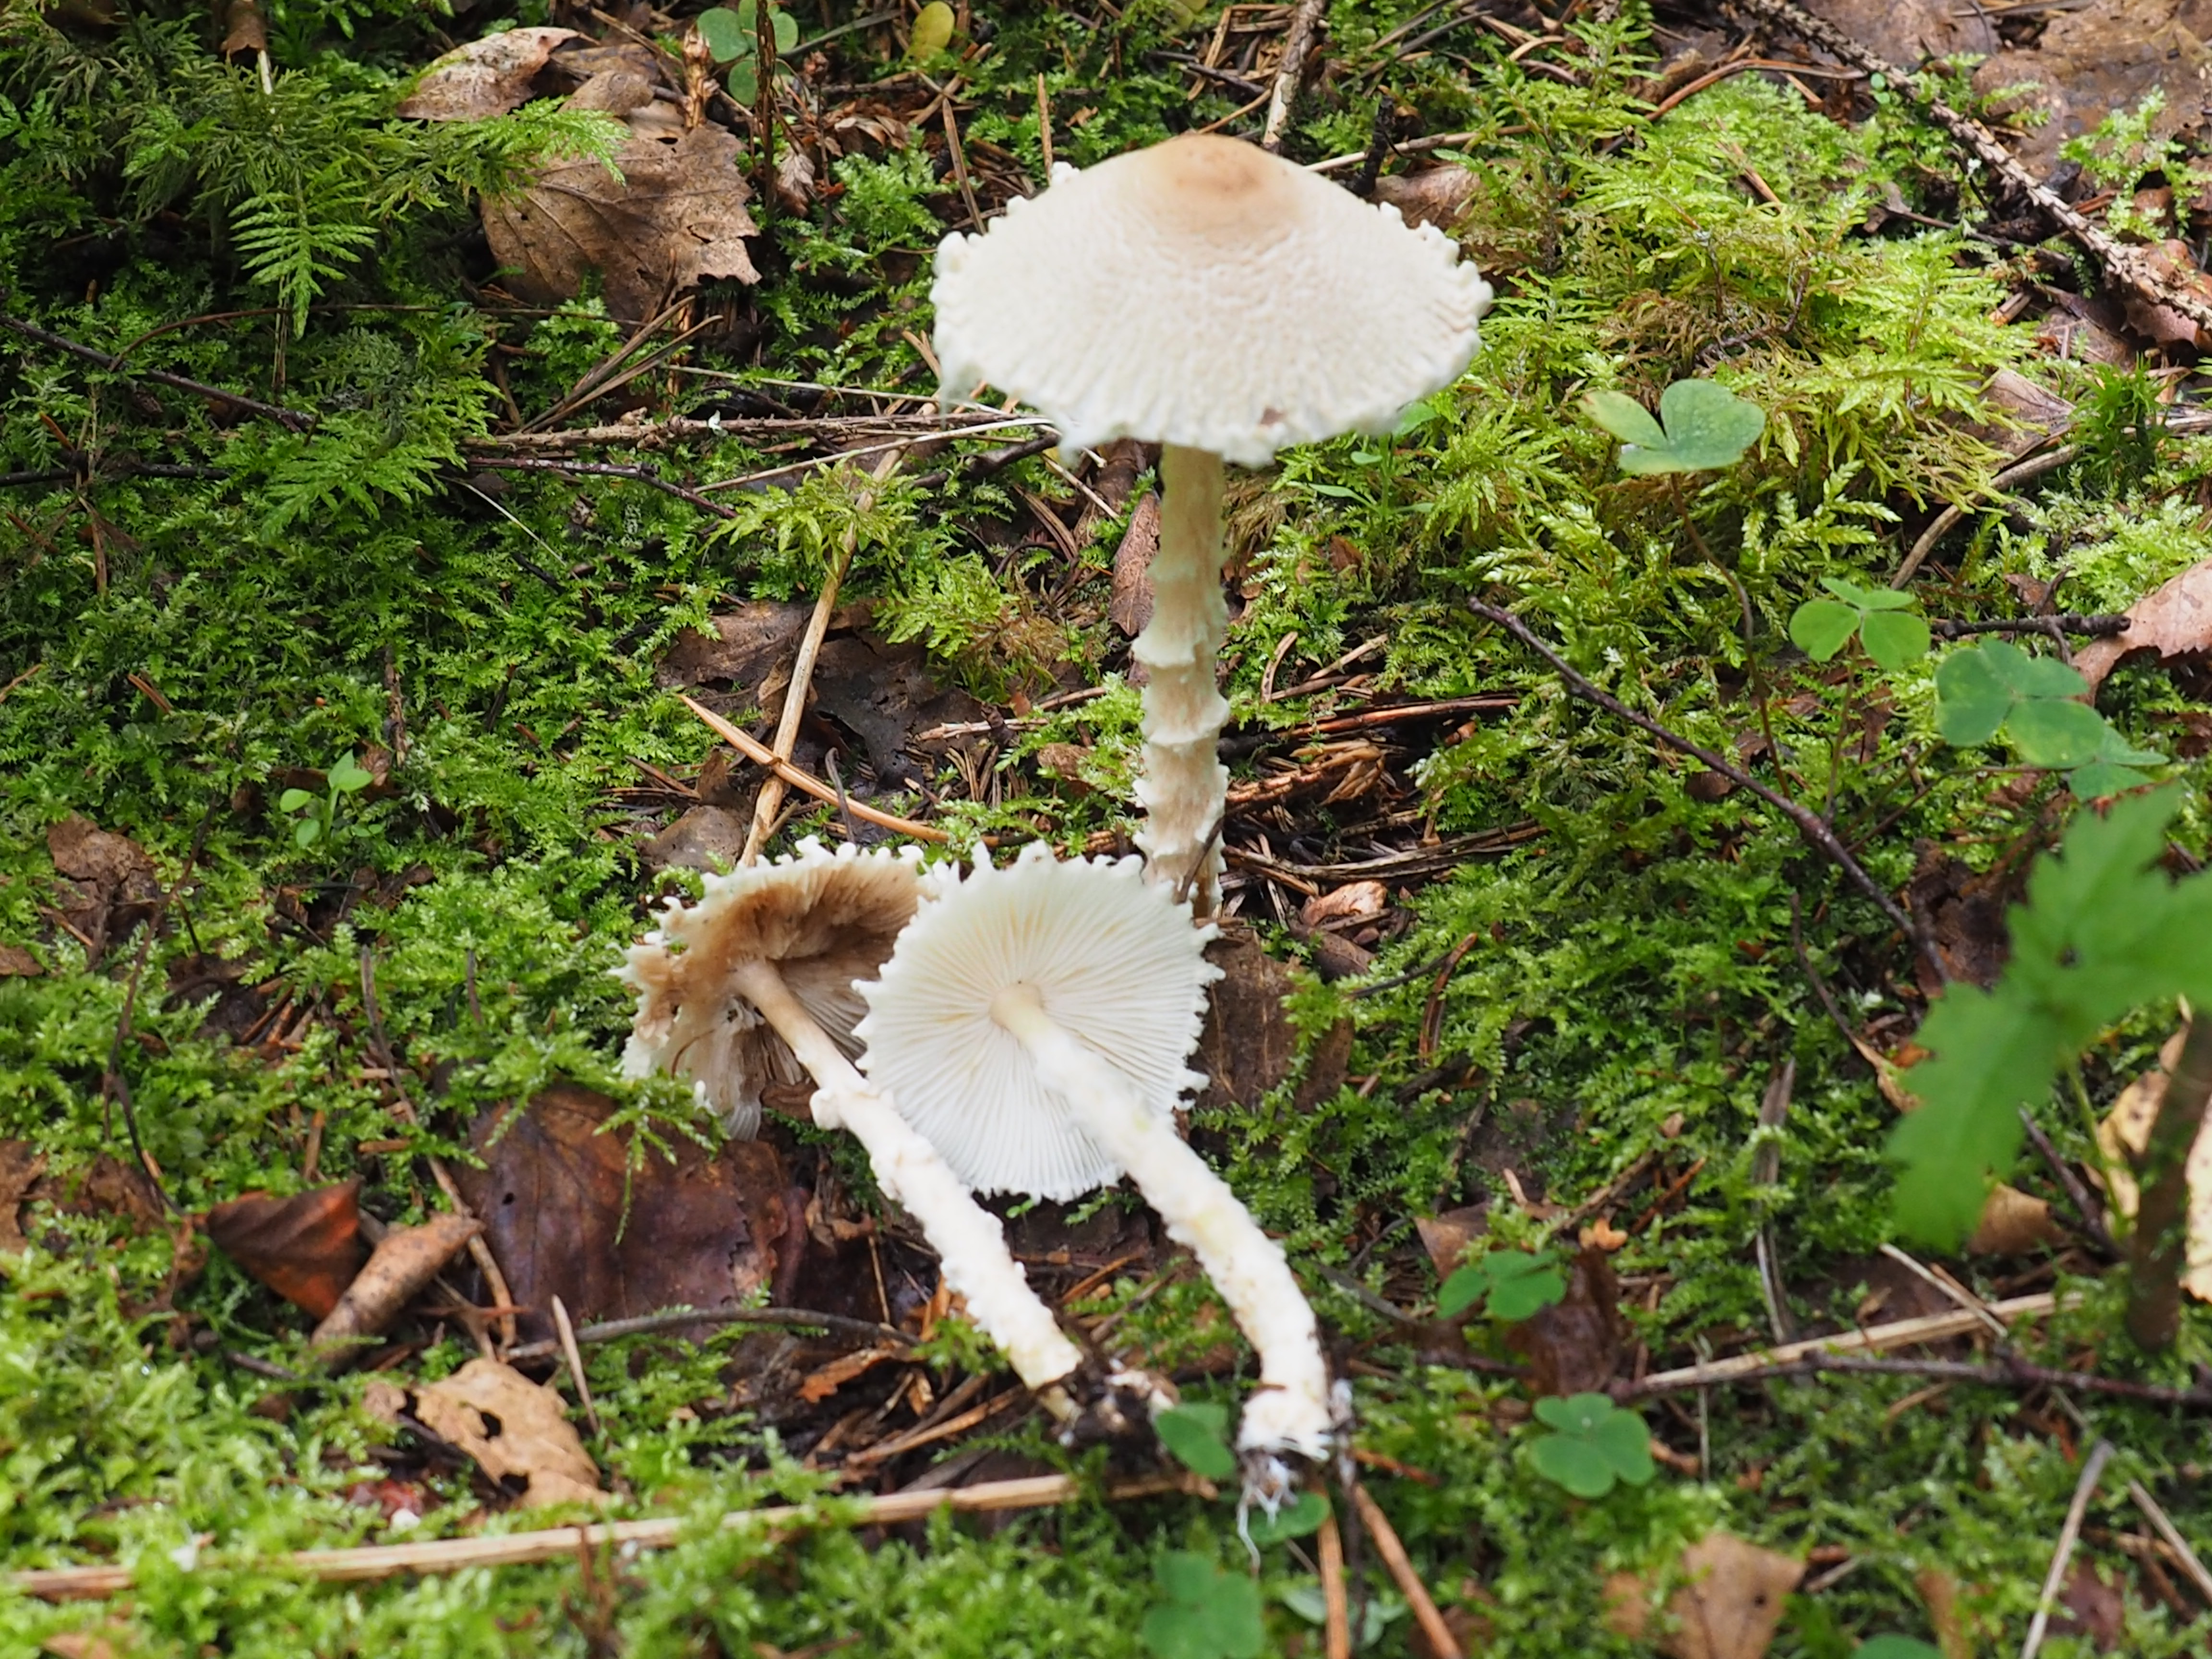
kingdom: Fungi
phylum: Basidiomycota
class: Agaricomycetes
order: Agaricales
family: Agaricaceae
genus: Lepiota
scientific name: Lepiota clypeolaria
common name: Shield dapperling
